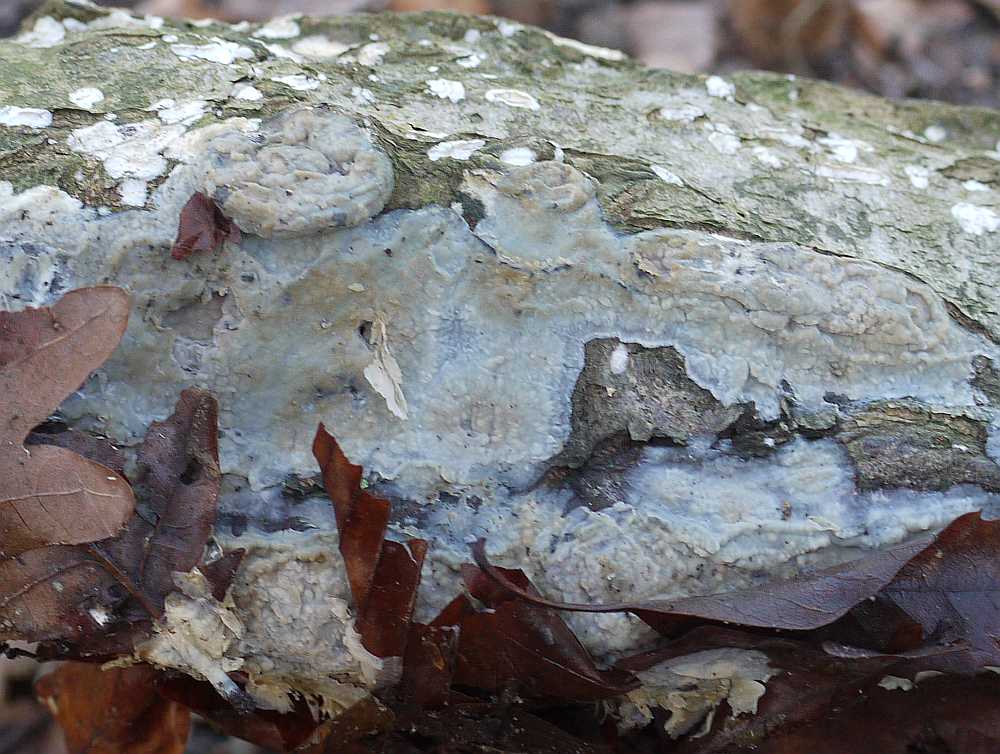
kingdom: Fungi
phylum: Basidiomycota
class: Agaricomycetes
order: Agaricales
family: Radulomycetaceae
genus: Radulomyces
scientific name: Radulomyces confluens
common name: glat naftalinskind
